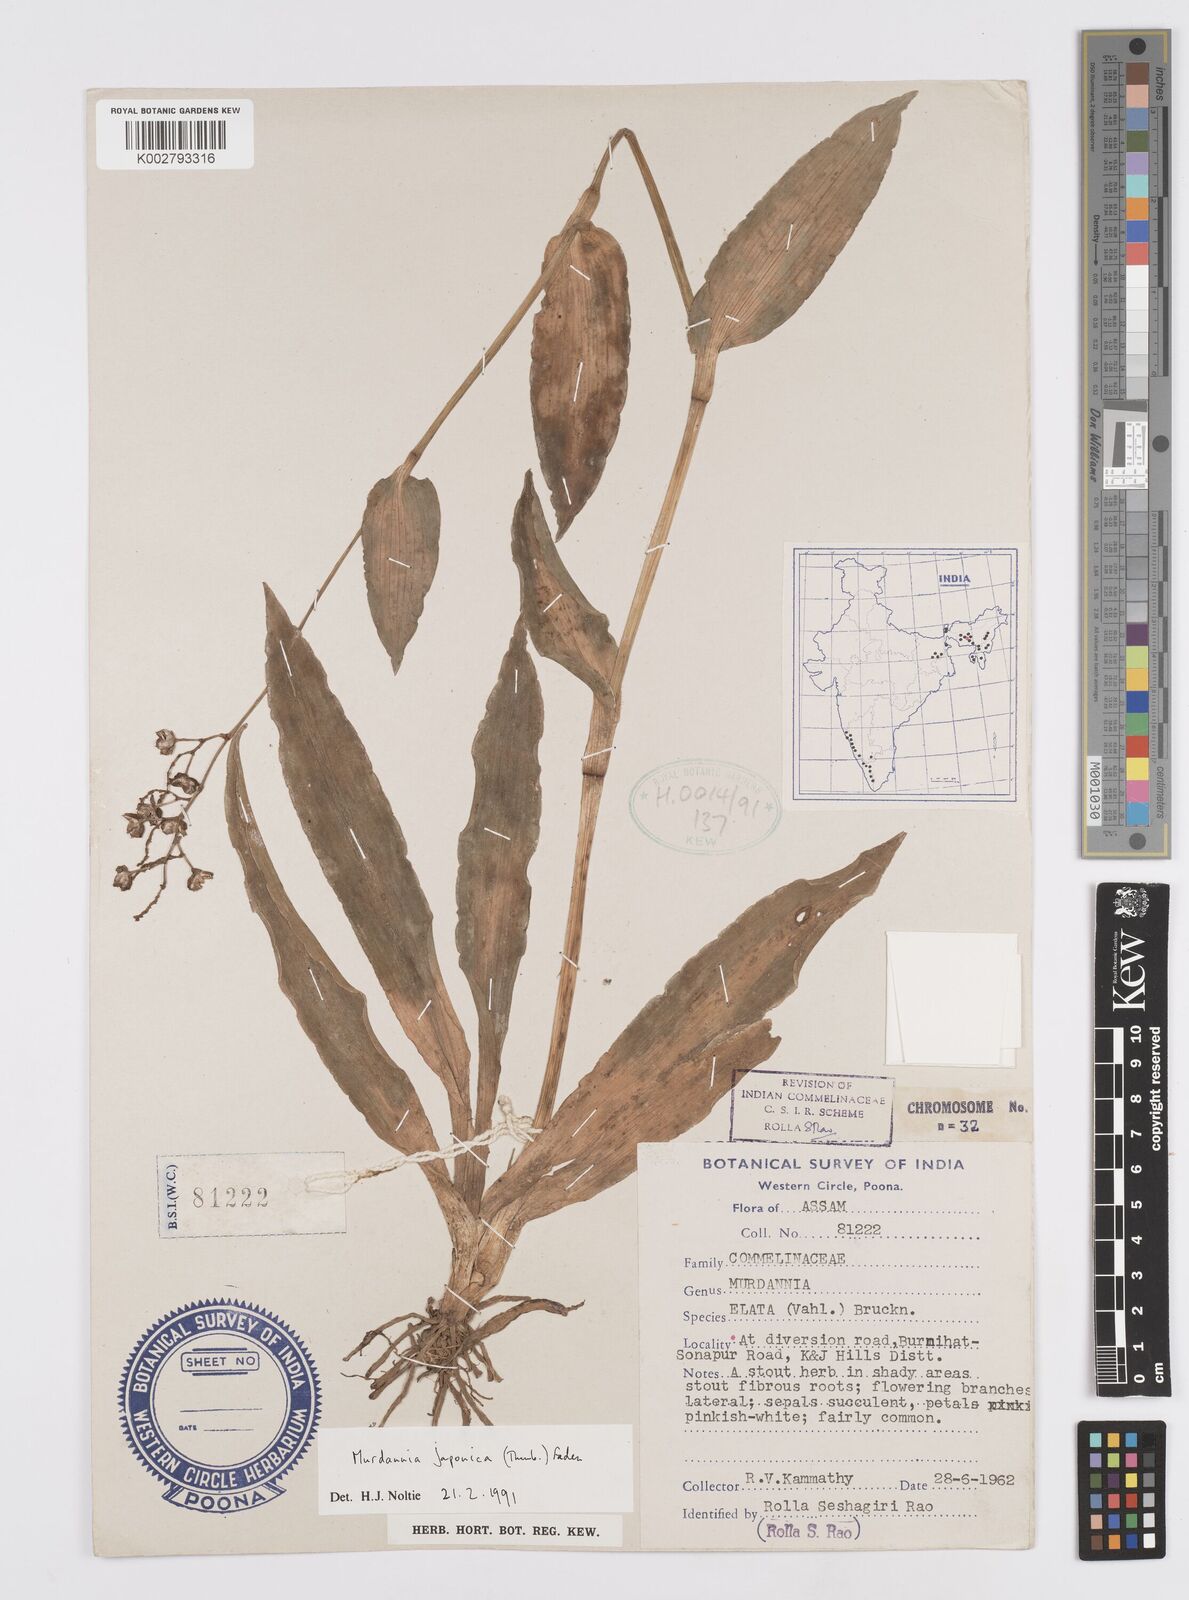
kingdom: Plantae
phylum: Tracheophyta
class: Liliopsida
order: Commelinales
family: Commelinaceae
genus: Murdannia
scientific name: Murdannia japonica
